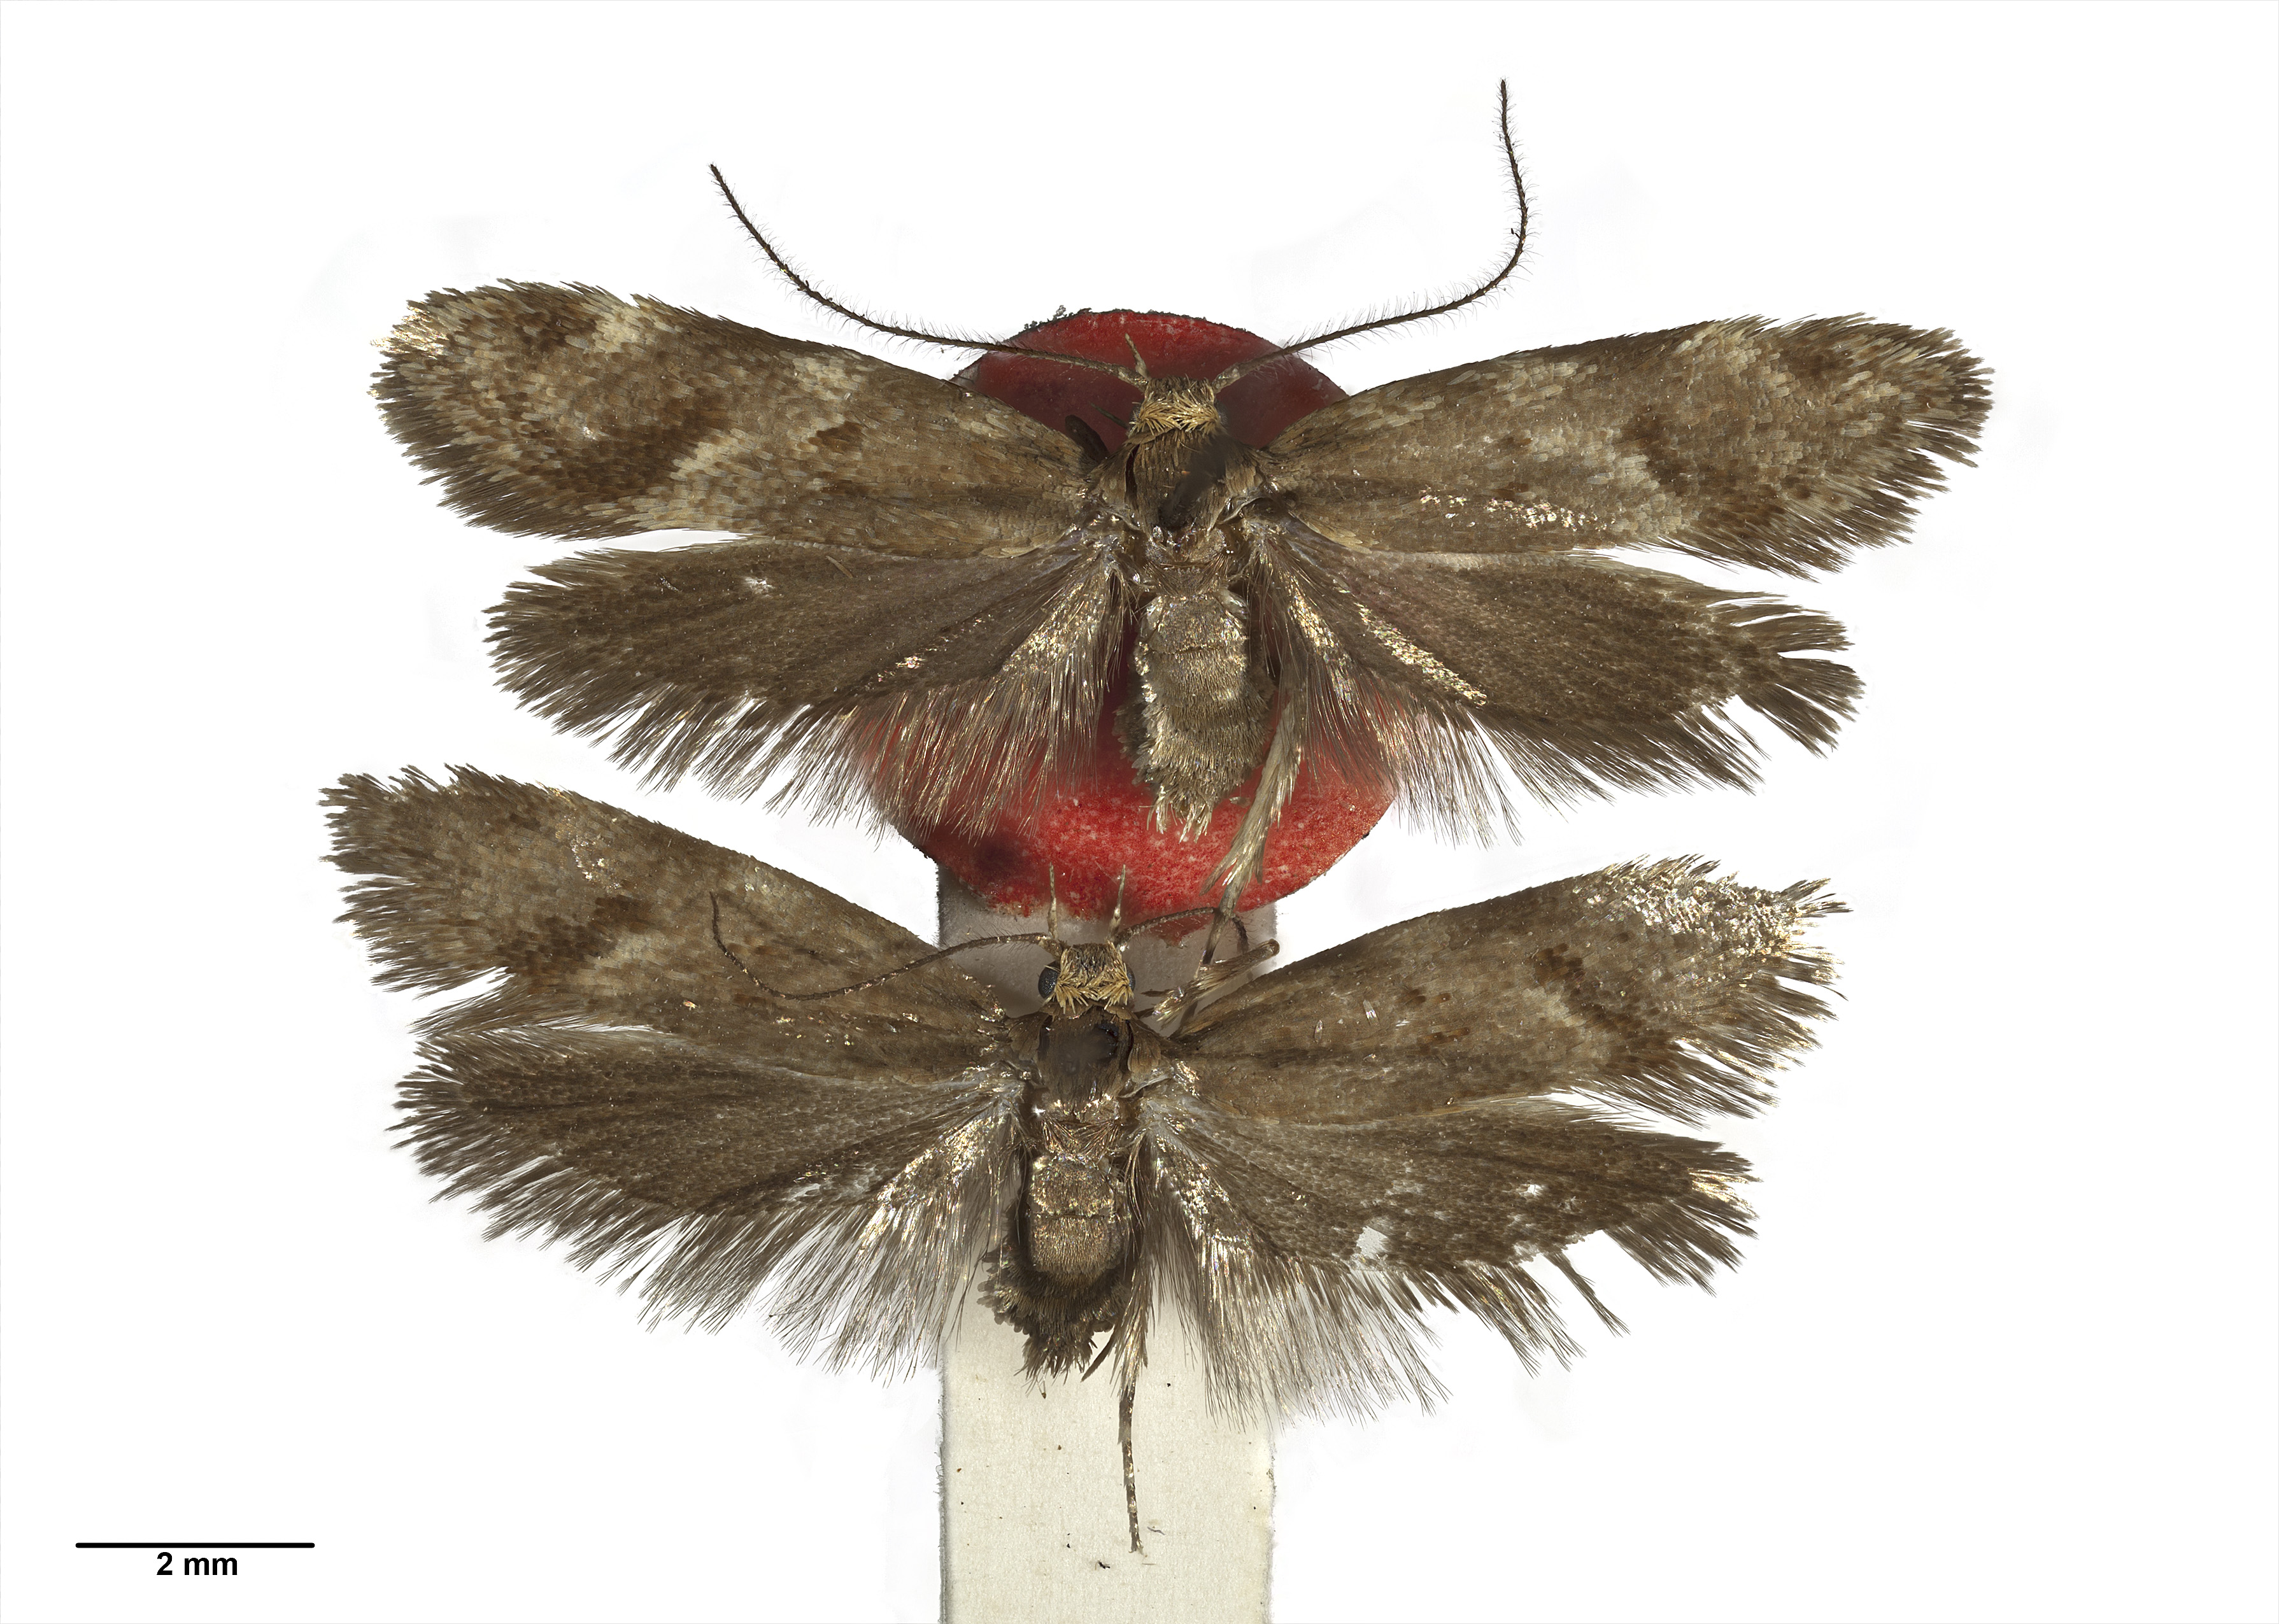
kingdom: Animalia
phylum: Arthropoda
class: Insecta
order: Lepidoptera
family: Oecophoridae
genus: Locheutis
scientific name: Locheutis fusca
